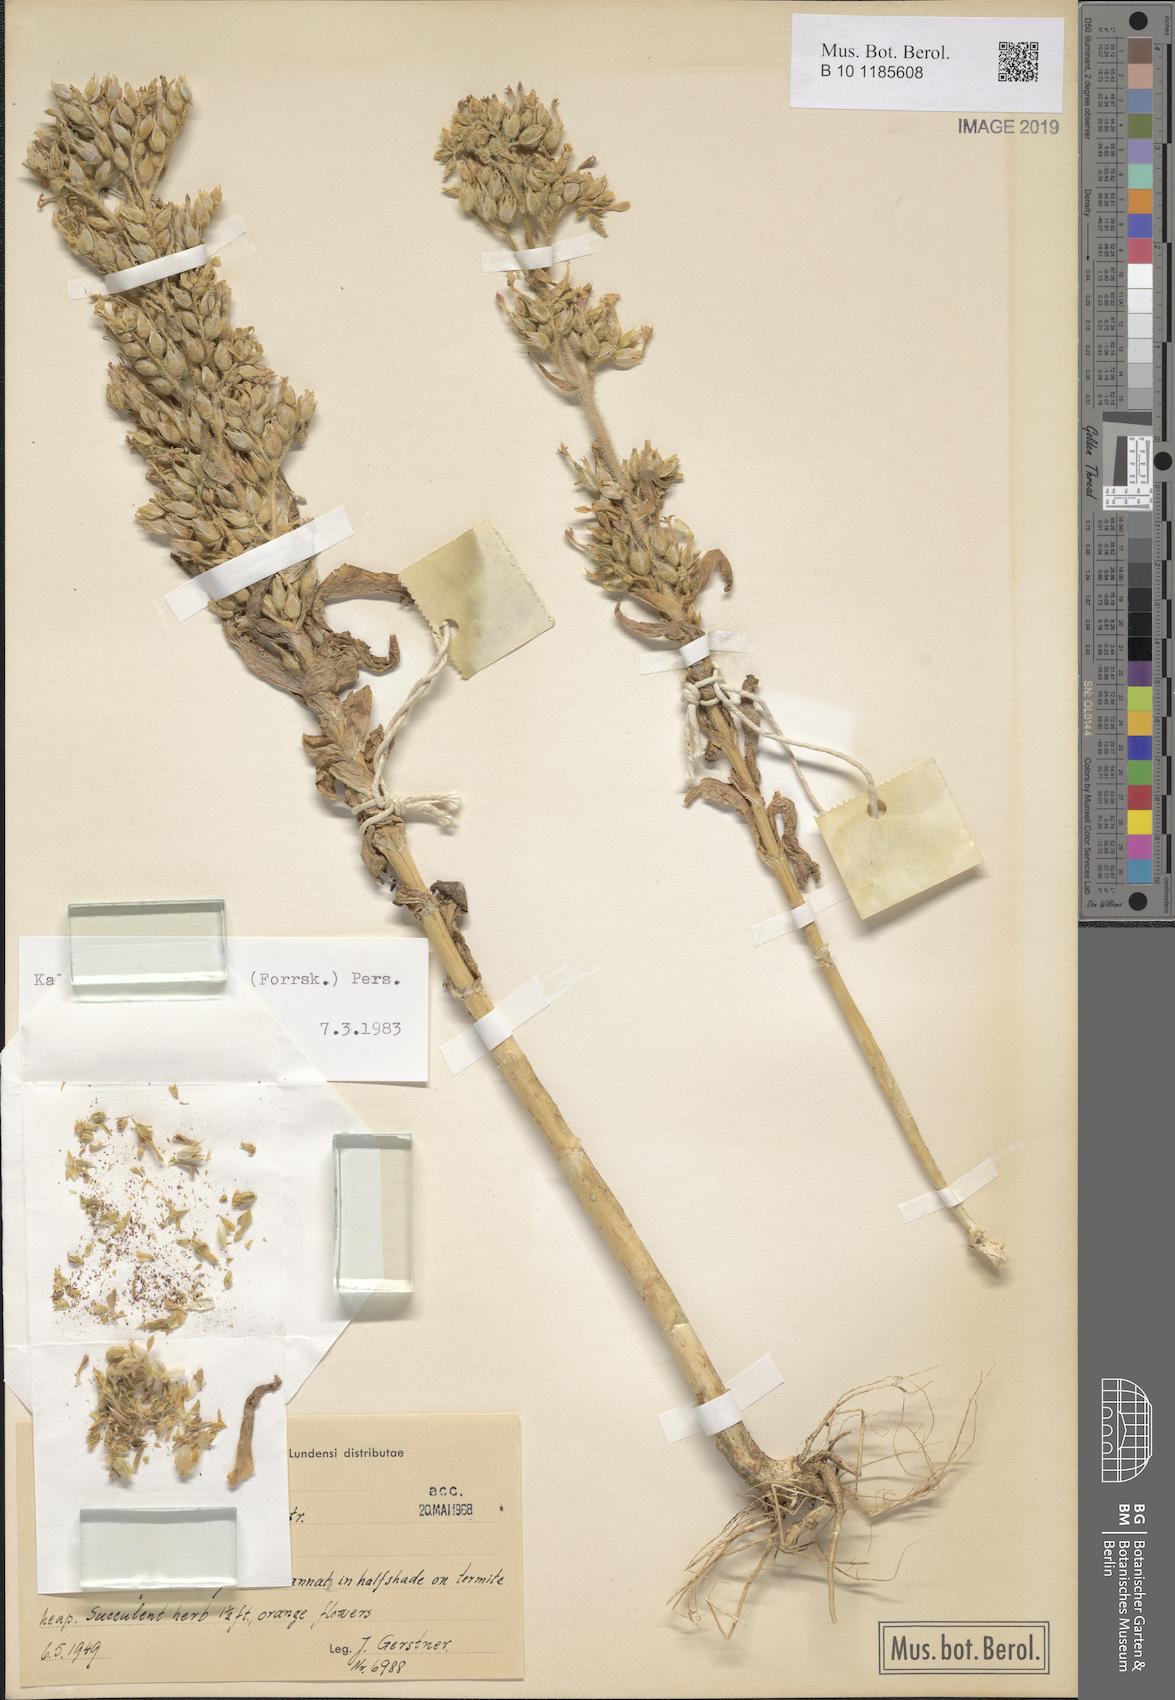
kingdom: Plantae
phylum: Tracheophyta
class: Magnoliopsida
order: Saxifragales
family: Crassulaceae
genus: Kalanchoe
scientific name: Kalanchoe lanceolata
